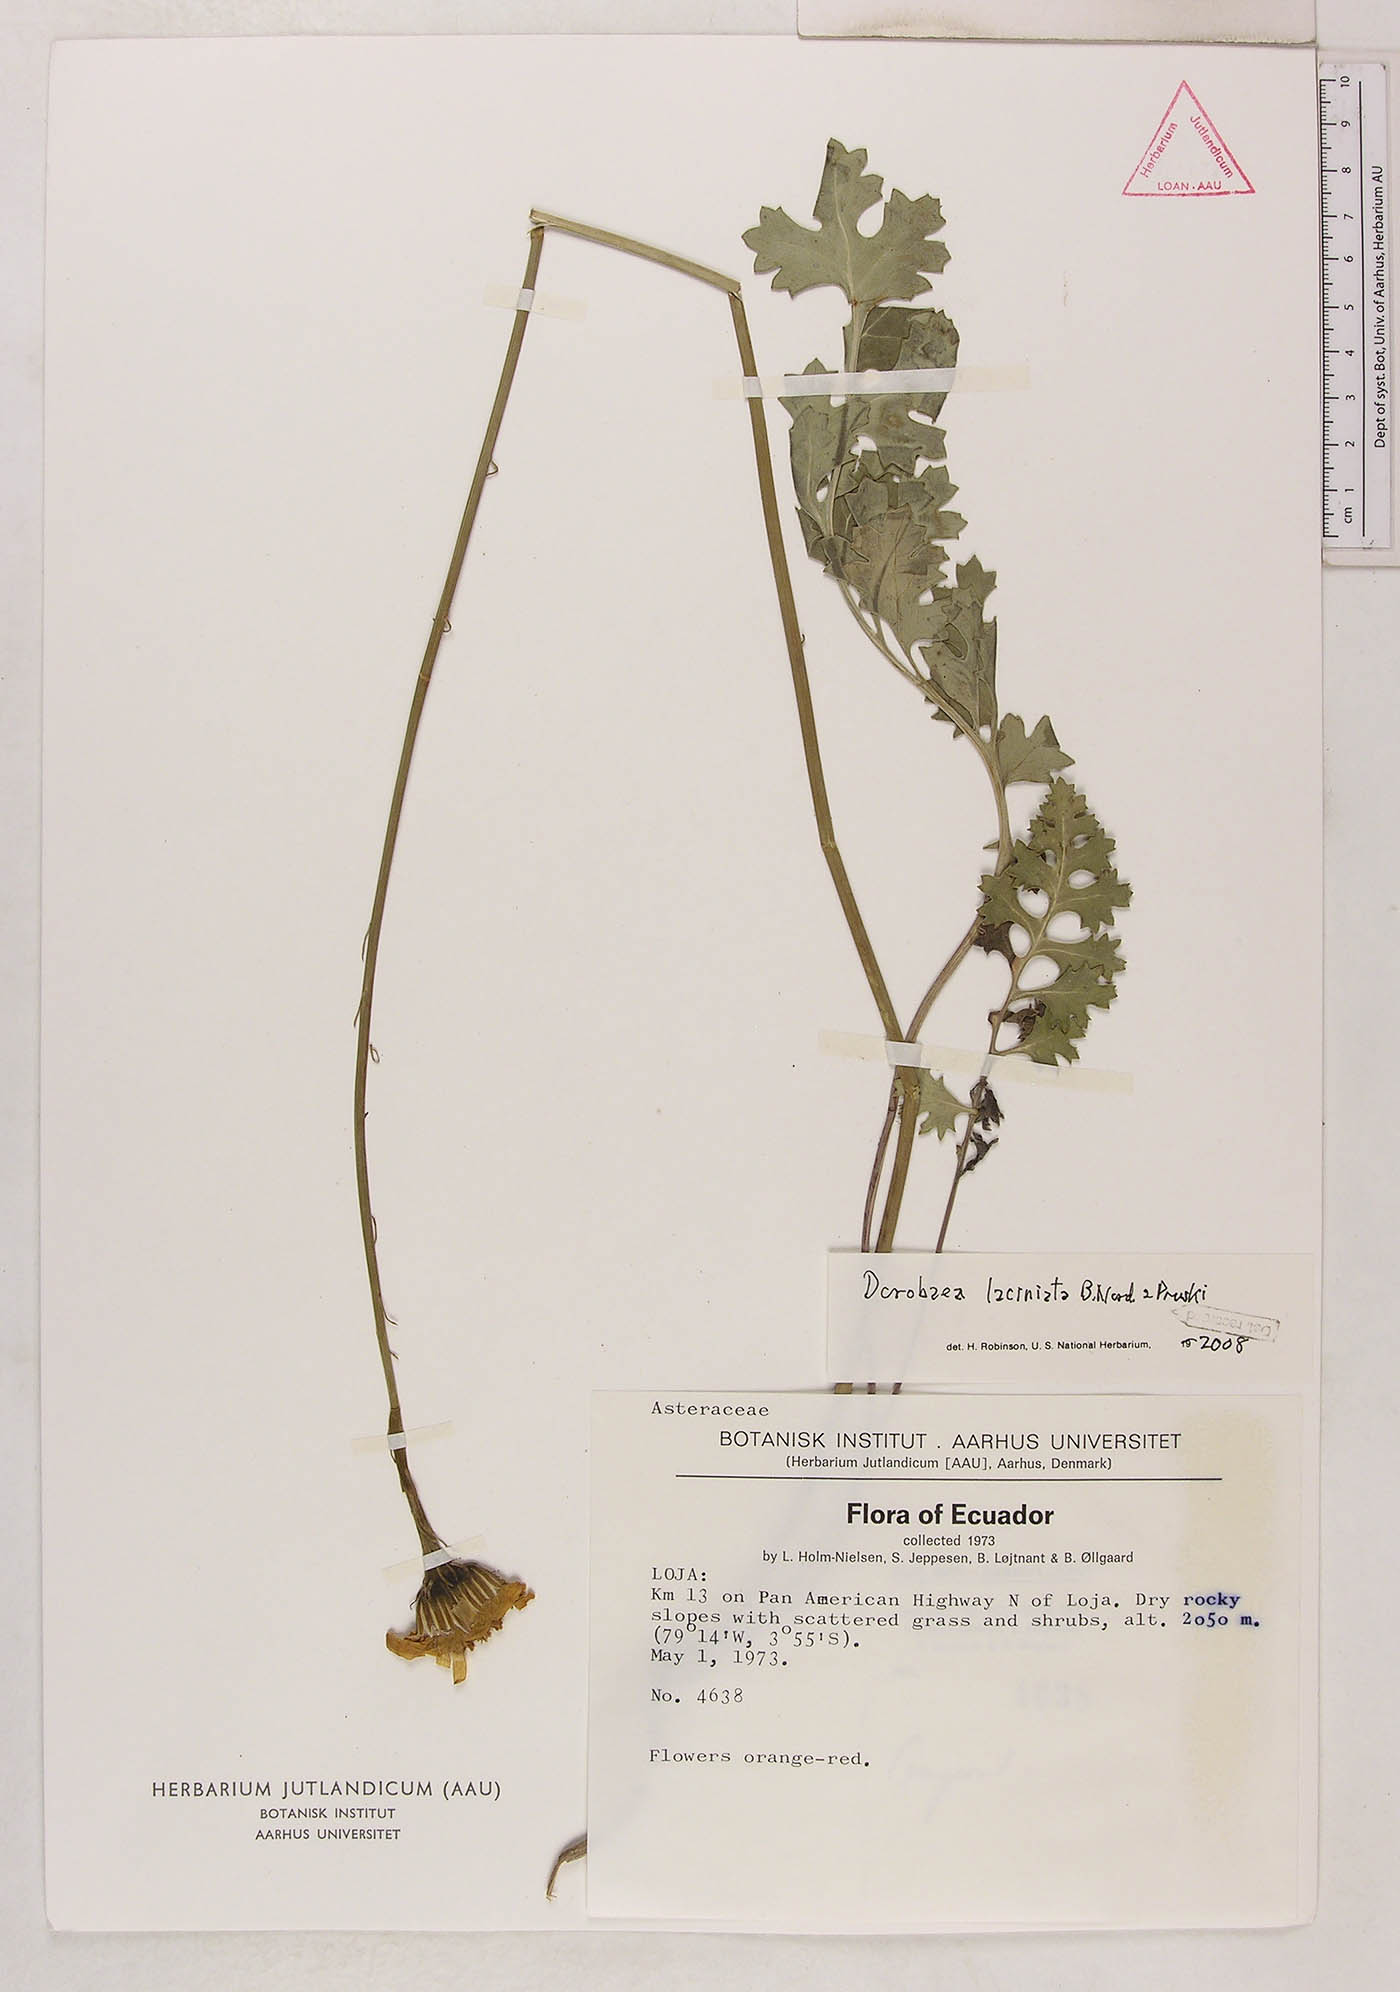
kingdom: Plantae
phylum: Tracheophyta
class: Magnoliopsida
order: Asterales
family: Asteraceae
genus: Dorobaea
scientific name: Dorobaea laciniata
